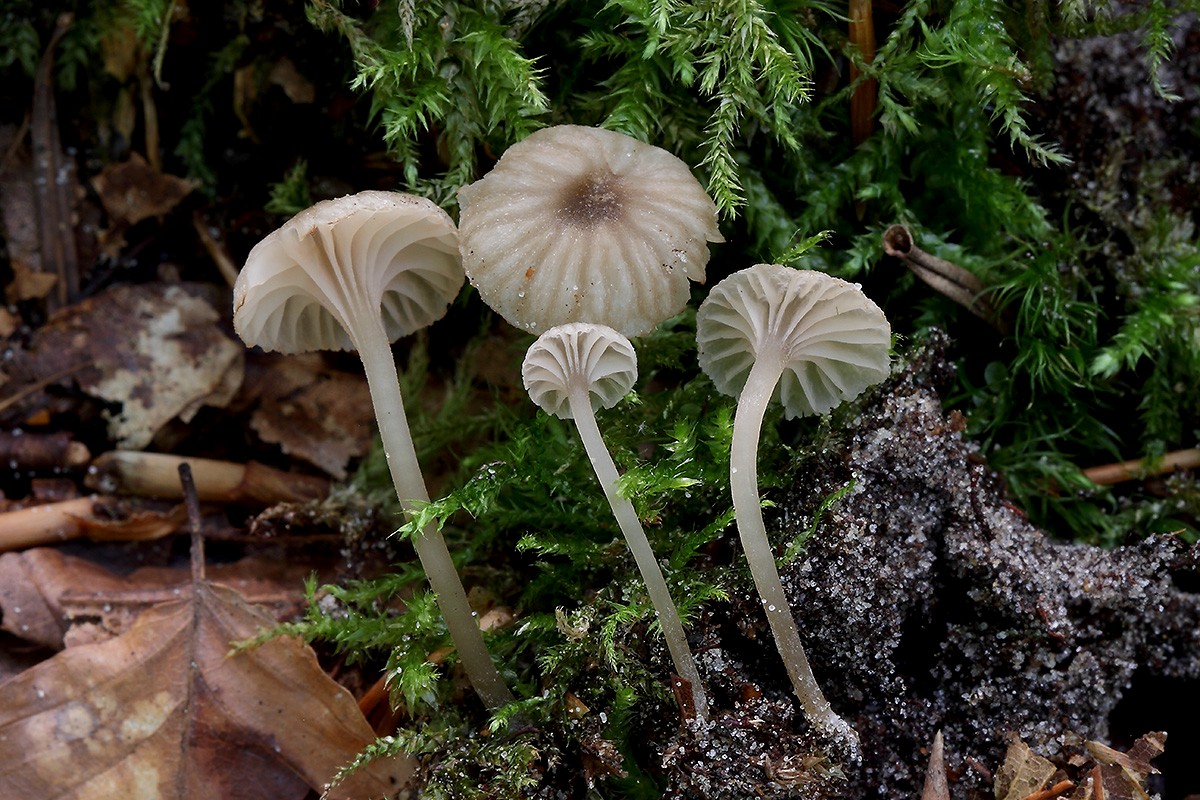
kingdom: Fungi
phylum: Basidiomycota
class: Agaricomycetes
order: Agaricales
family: Entolomataceae
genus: Entoloma
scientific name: Entoloma rhodocylix
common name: fjernbladet rødblad
